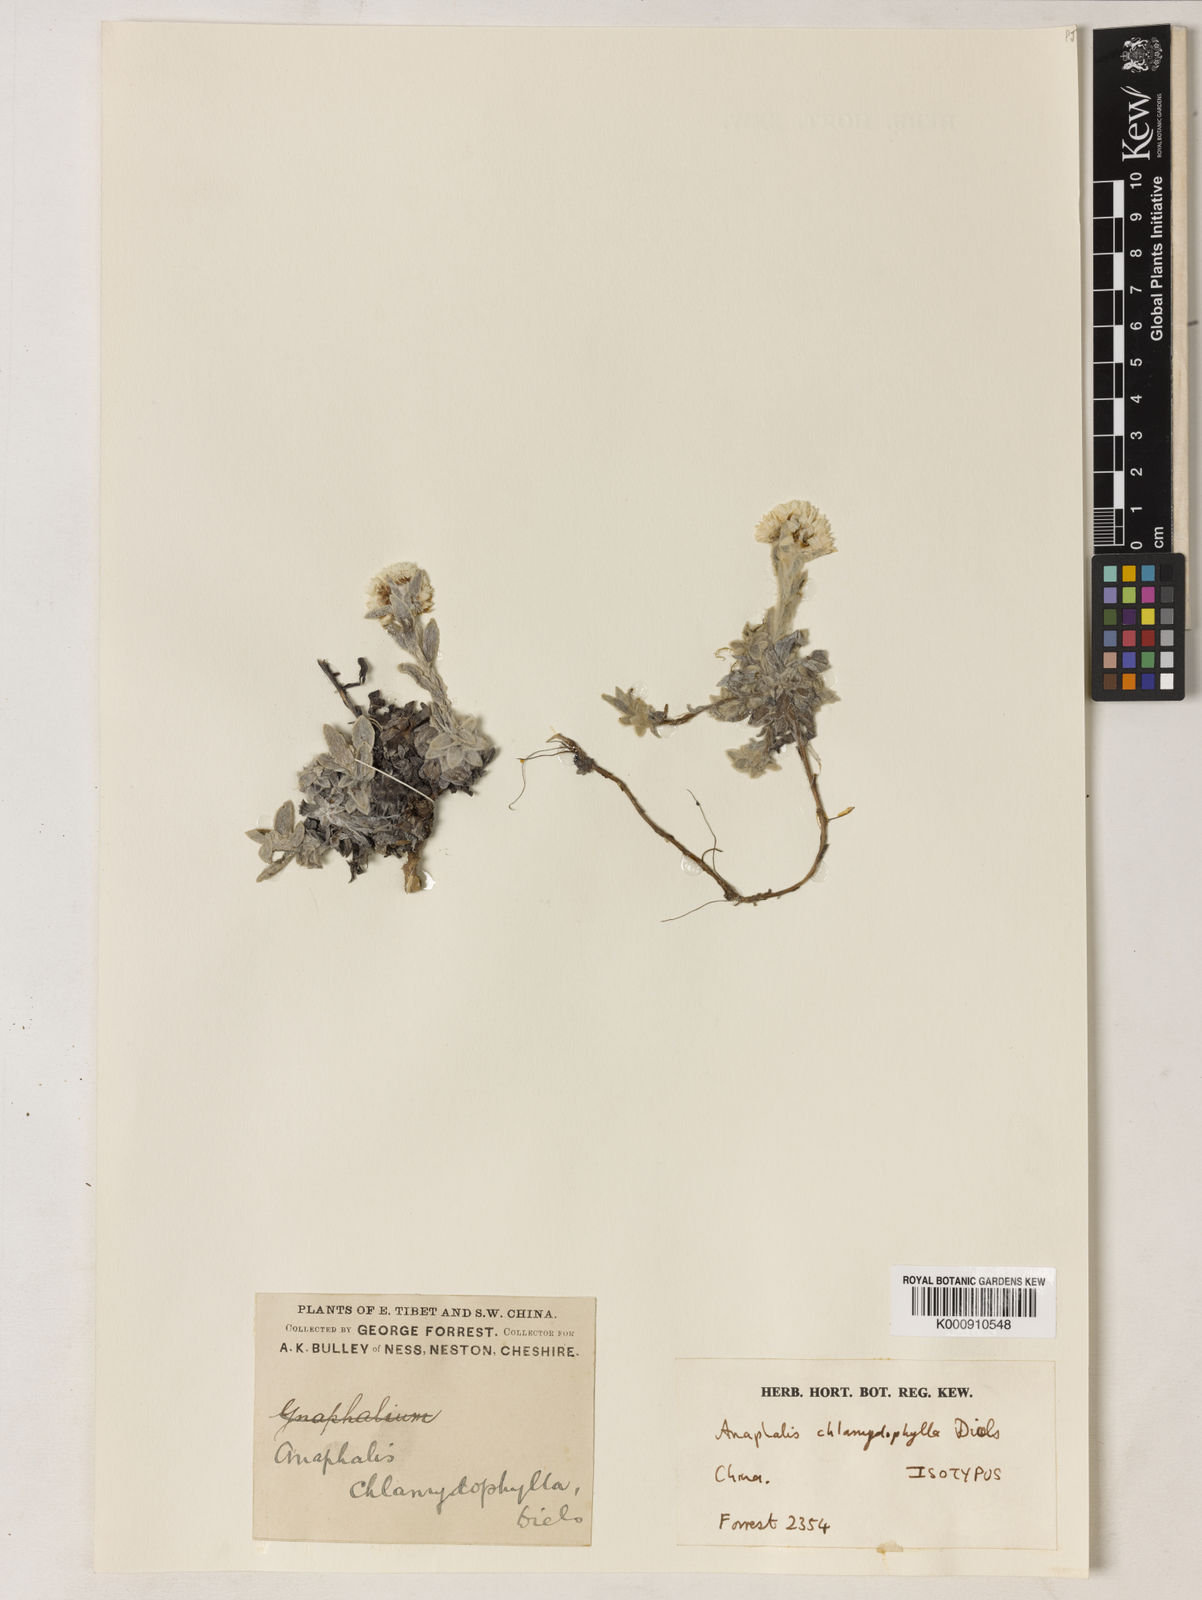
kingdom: Plantae
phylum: Tracheophyta
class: Magnoliopsida
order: Asterales
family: Asteraceae
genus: Anaphalis
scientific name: Anaphalis chlamydophylla
